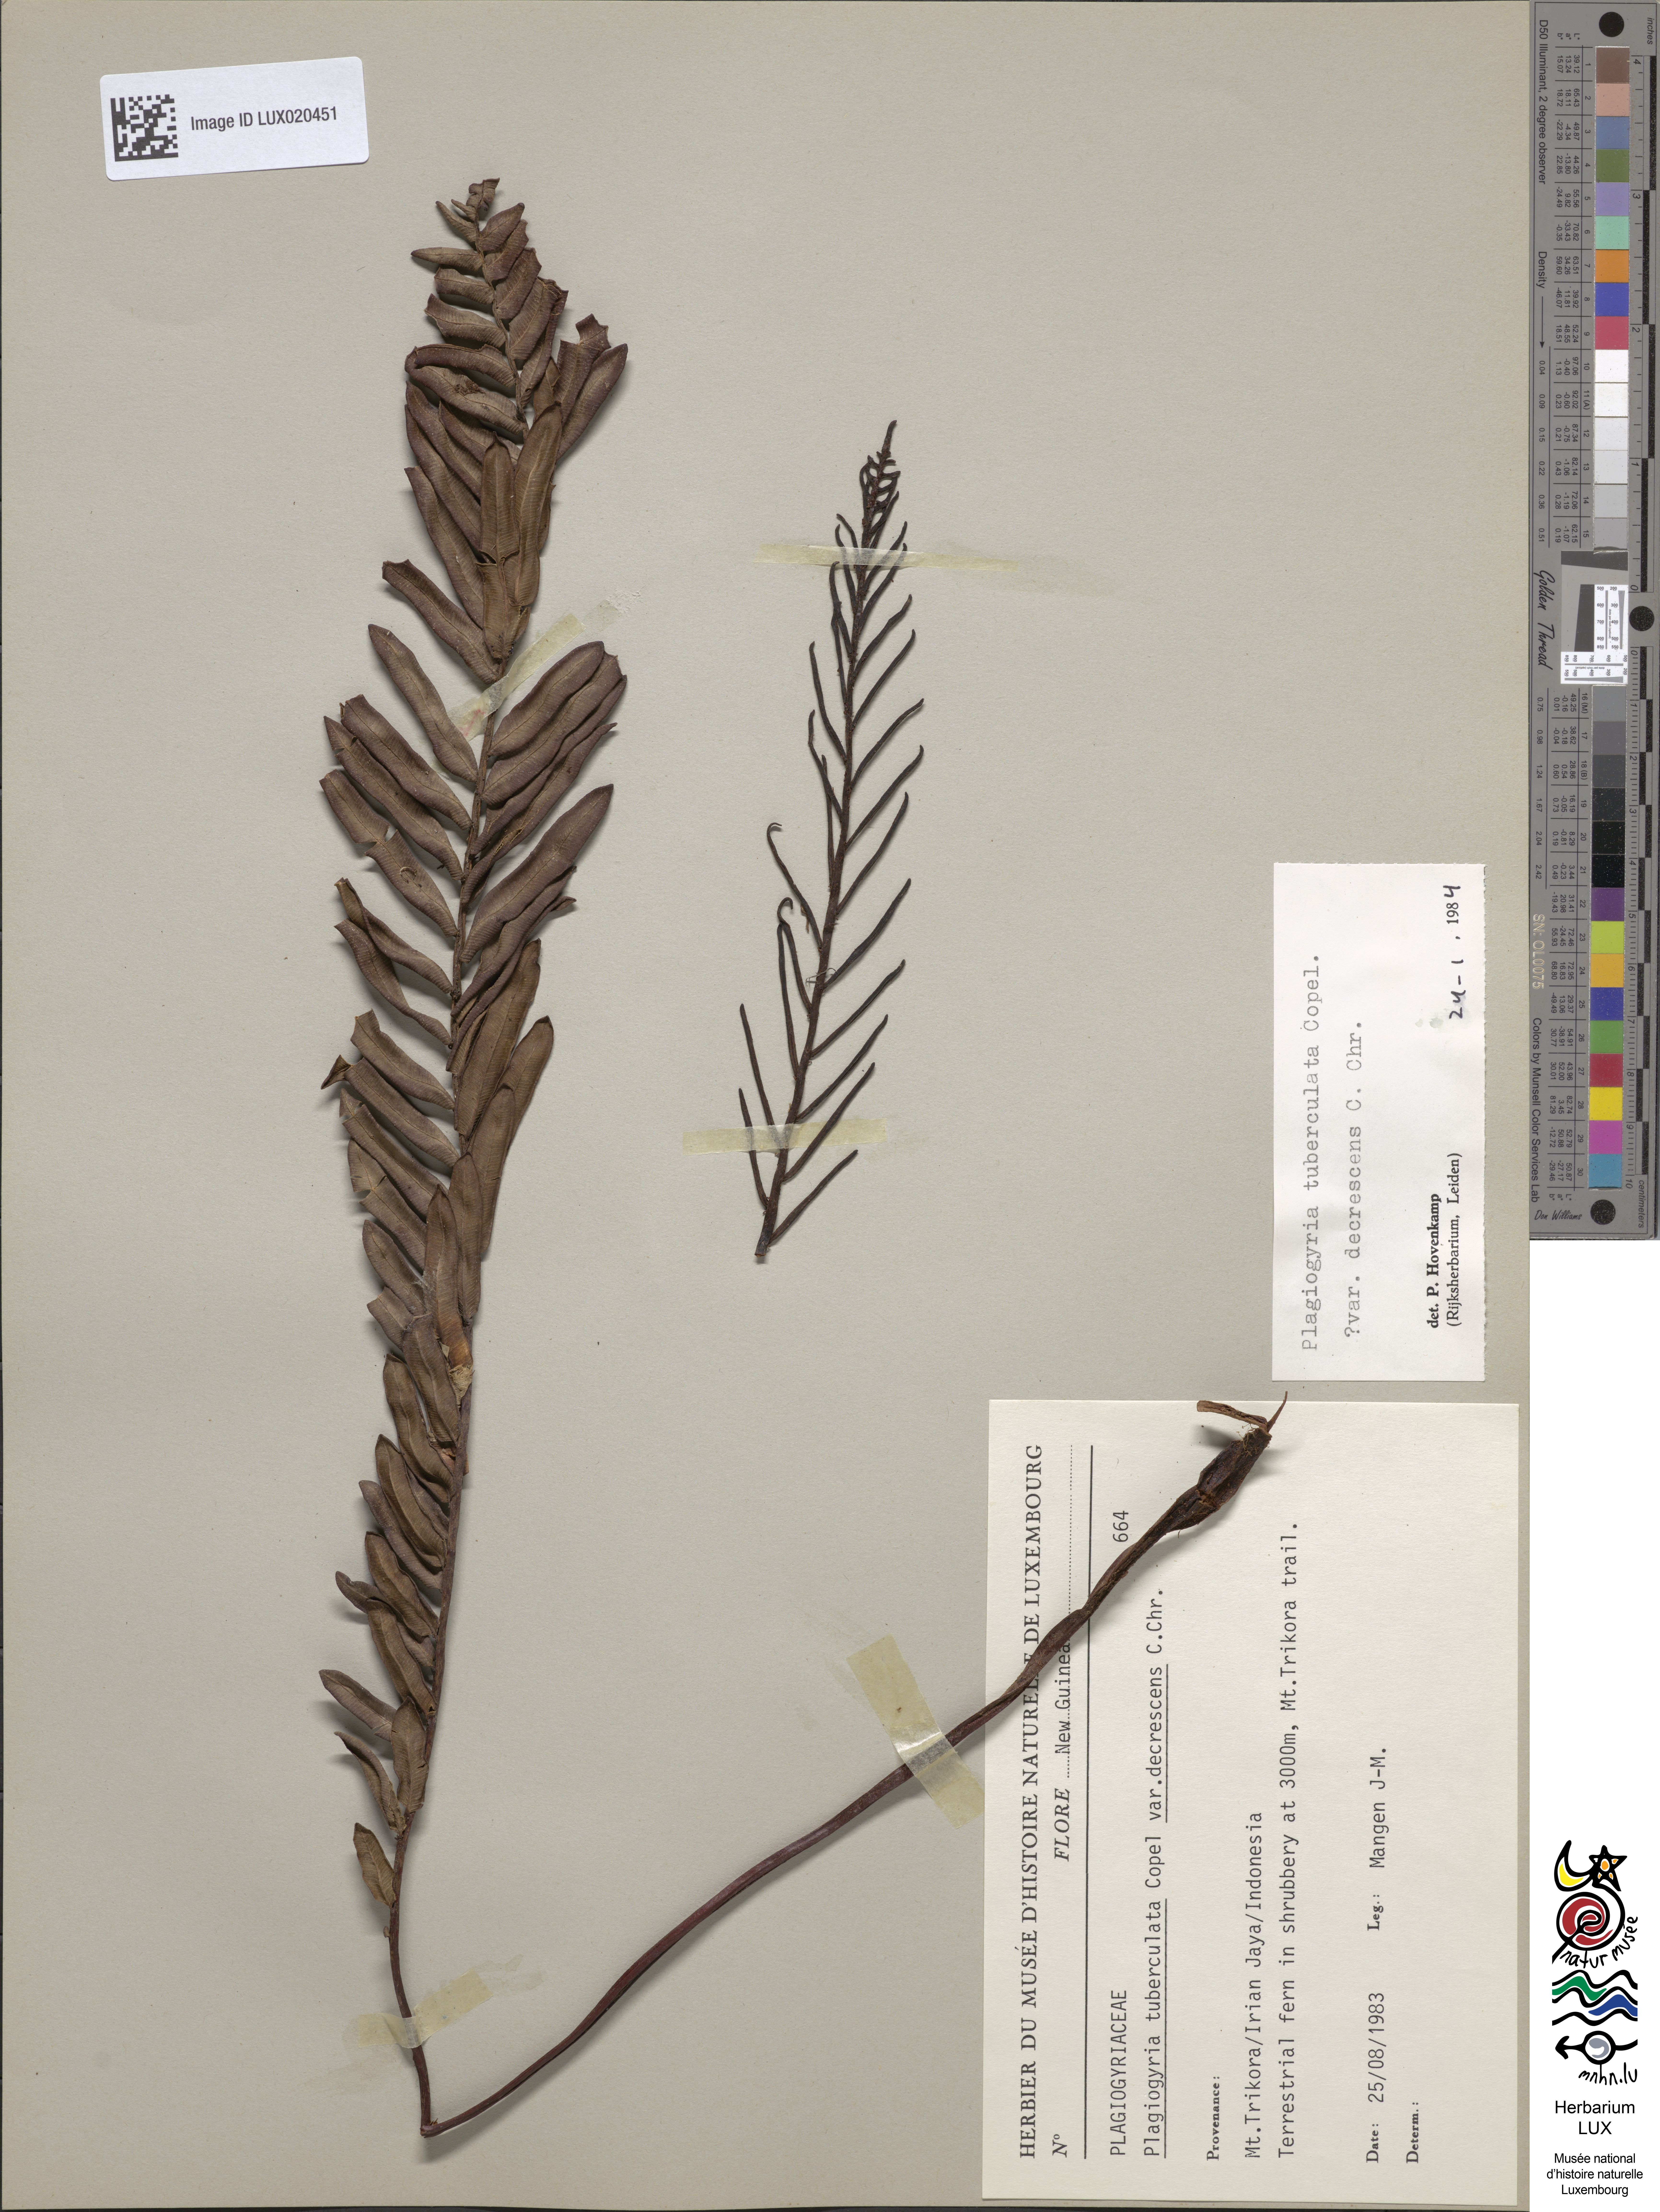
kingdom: Plantae
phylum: Tracheophyta
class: Polypodiopsida
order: Cyatheales
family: Plagiogyriaceae
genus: Plagiogyria
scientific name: Plagiogyria egenolfioides
